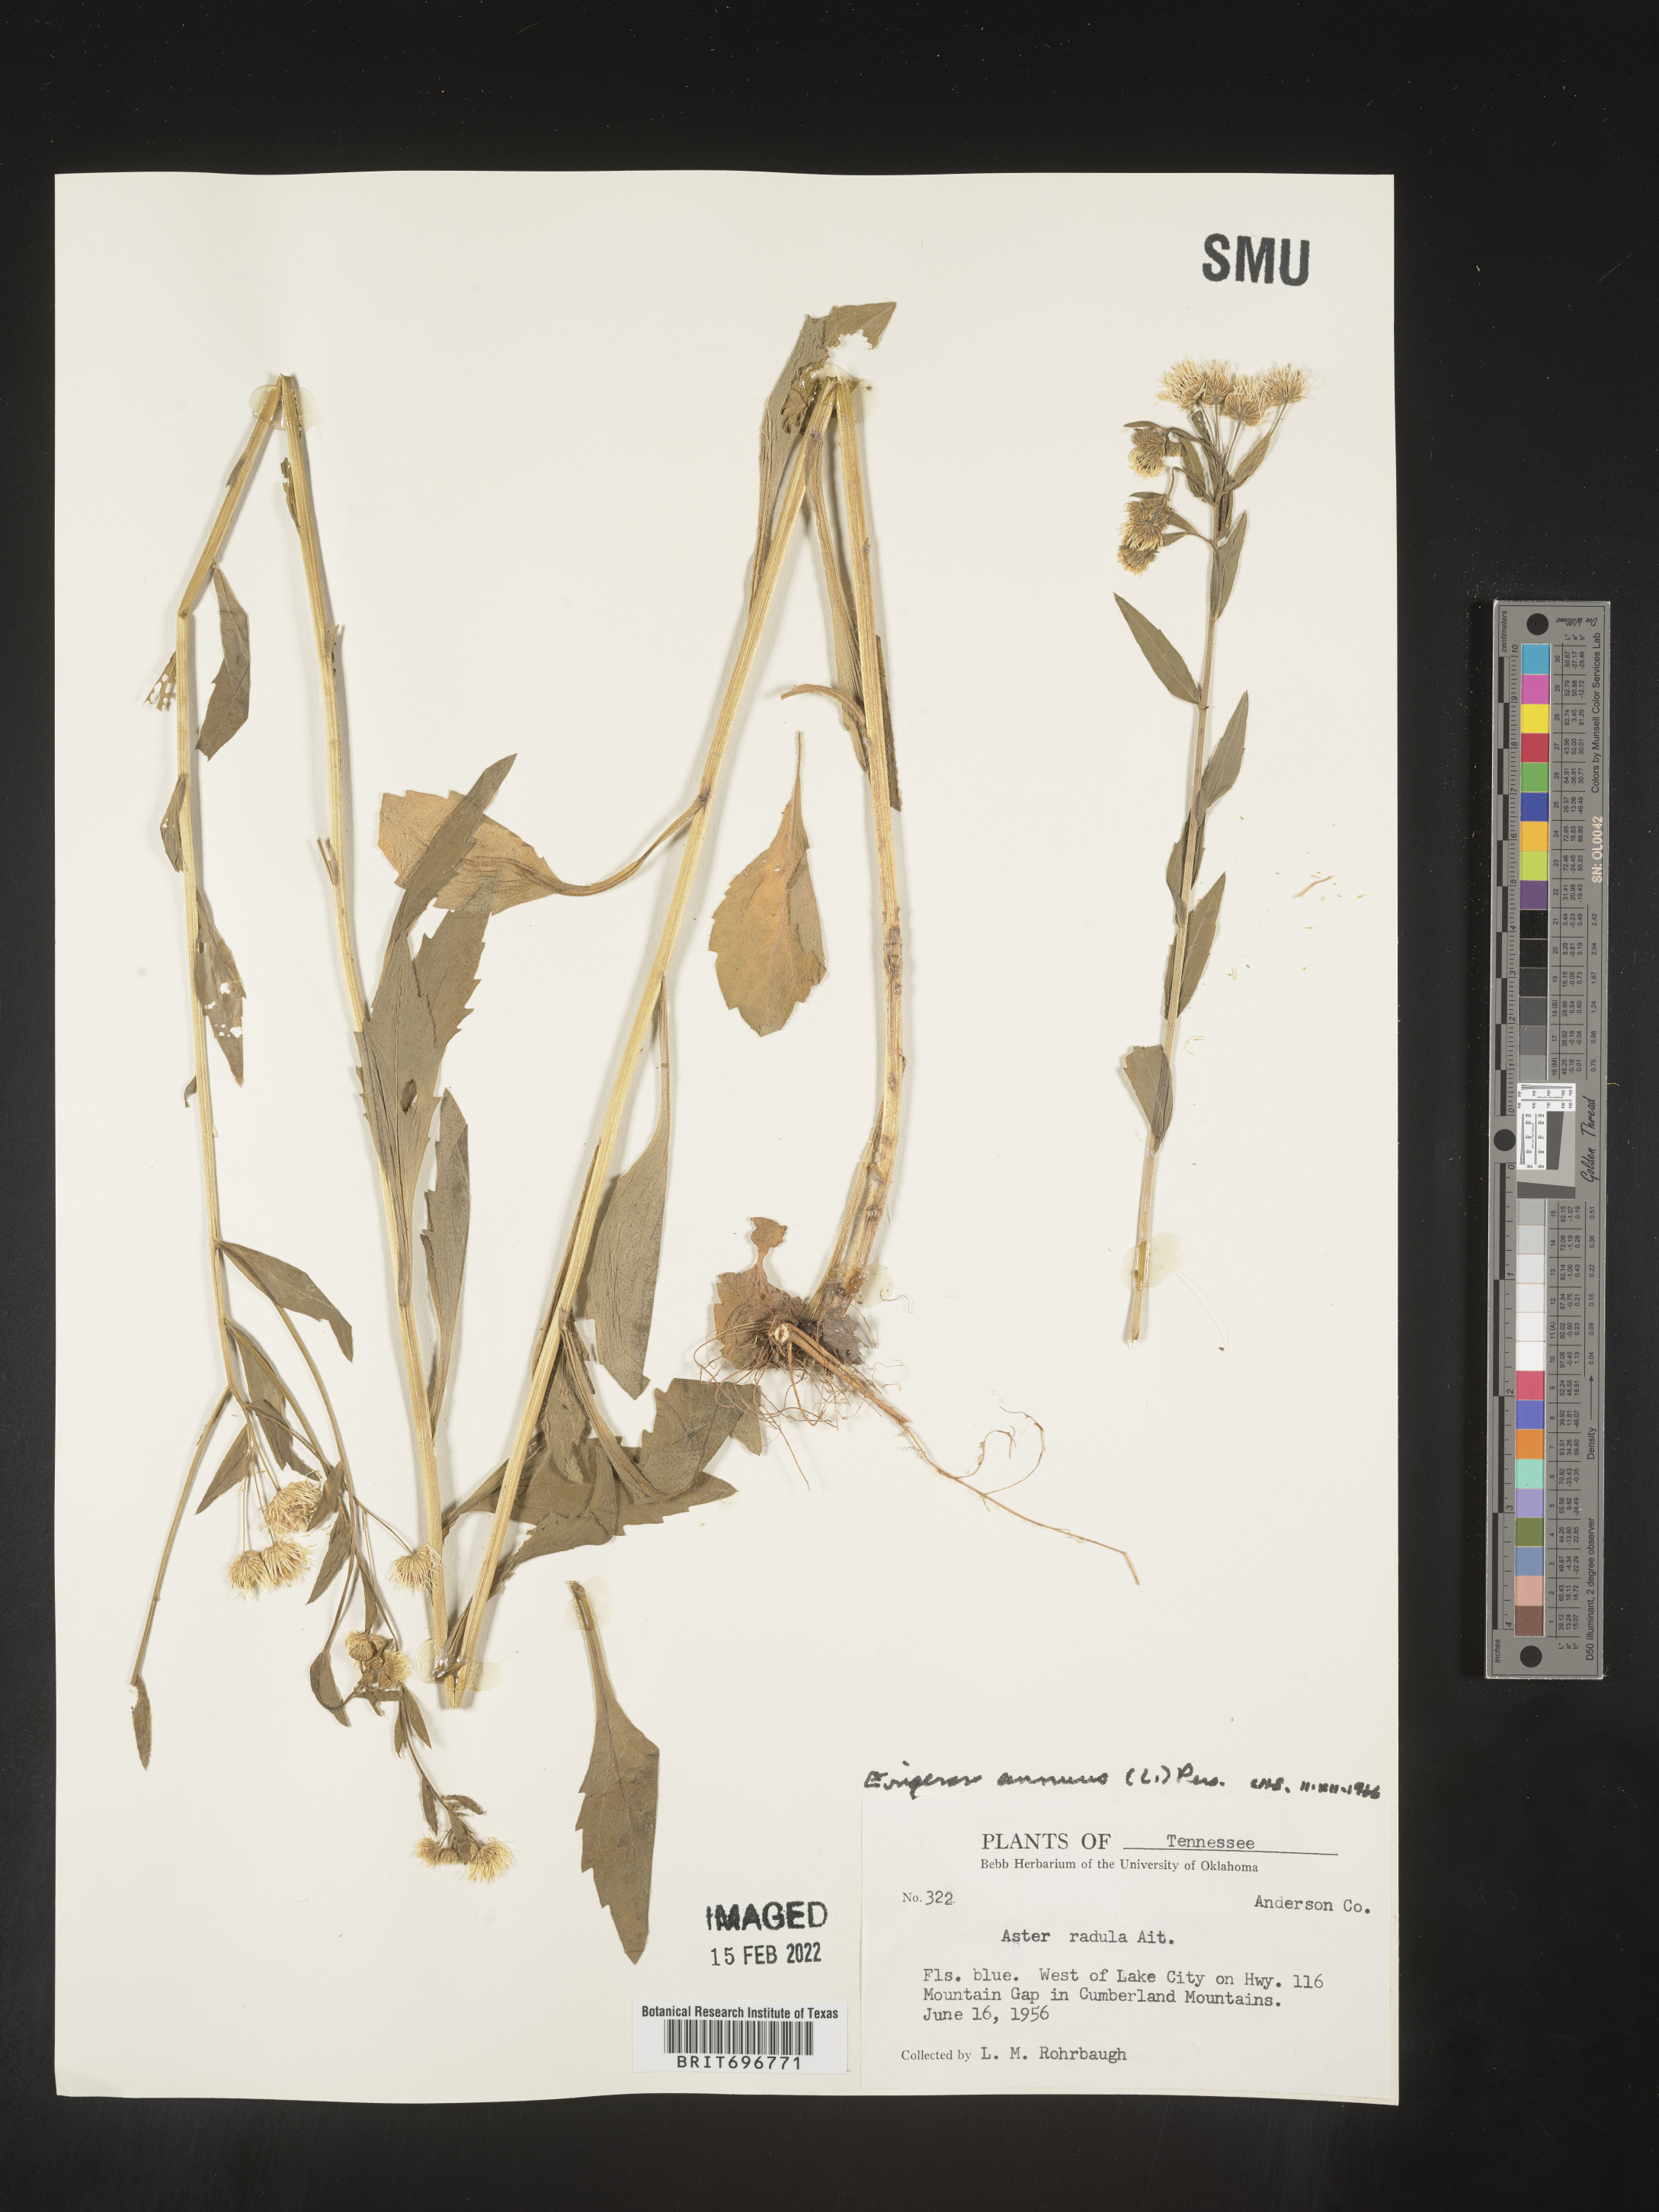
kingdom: Plantae
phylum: Tracheophyta
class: Magnoliopsida
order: Asterales
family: Asteraceae
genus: Erigeron
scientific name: Erigeron annuus
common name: Tall fleabane
